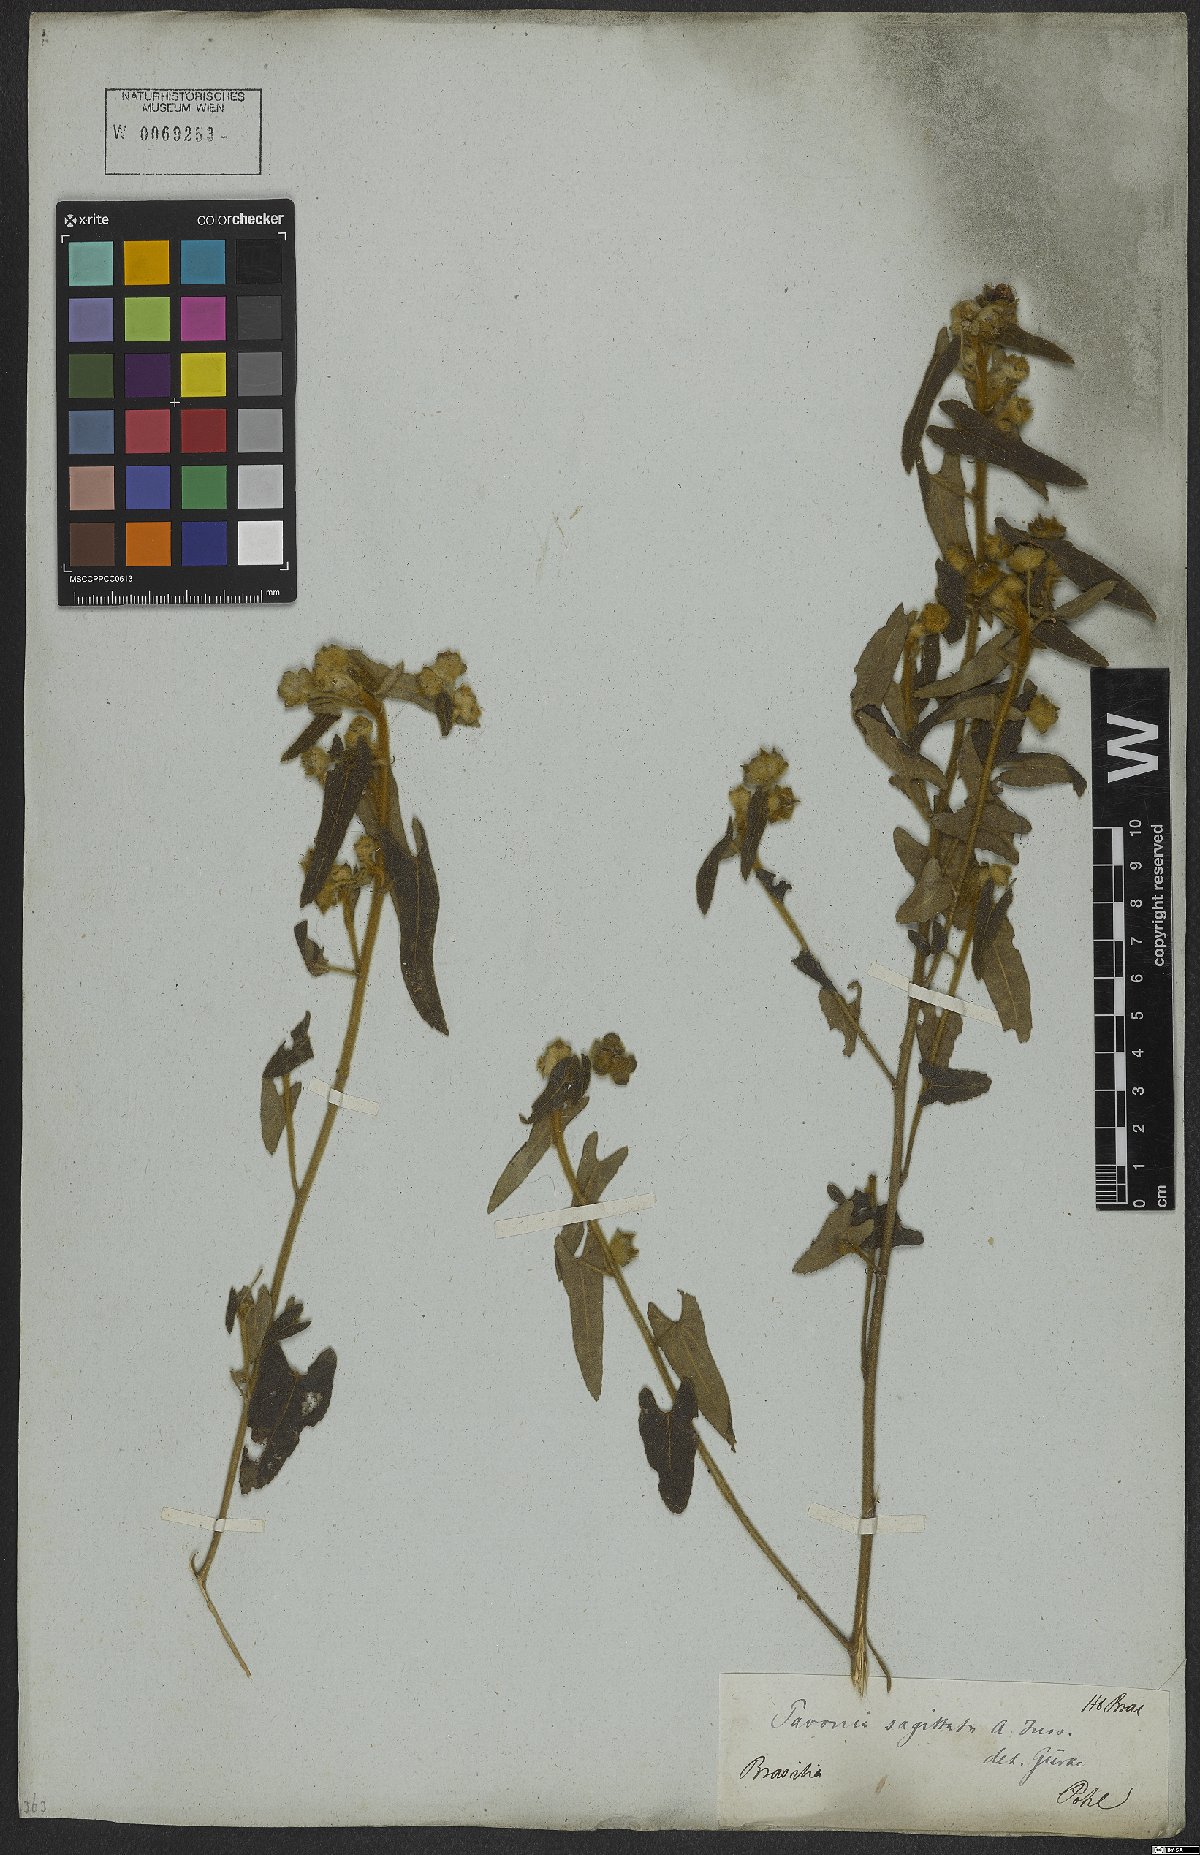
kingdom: Plantae
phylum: Tracheophyta
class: Magnoliopsida
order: Malvales
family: Malvaceae
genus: Pavonia
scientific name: Pavonia sagittata
